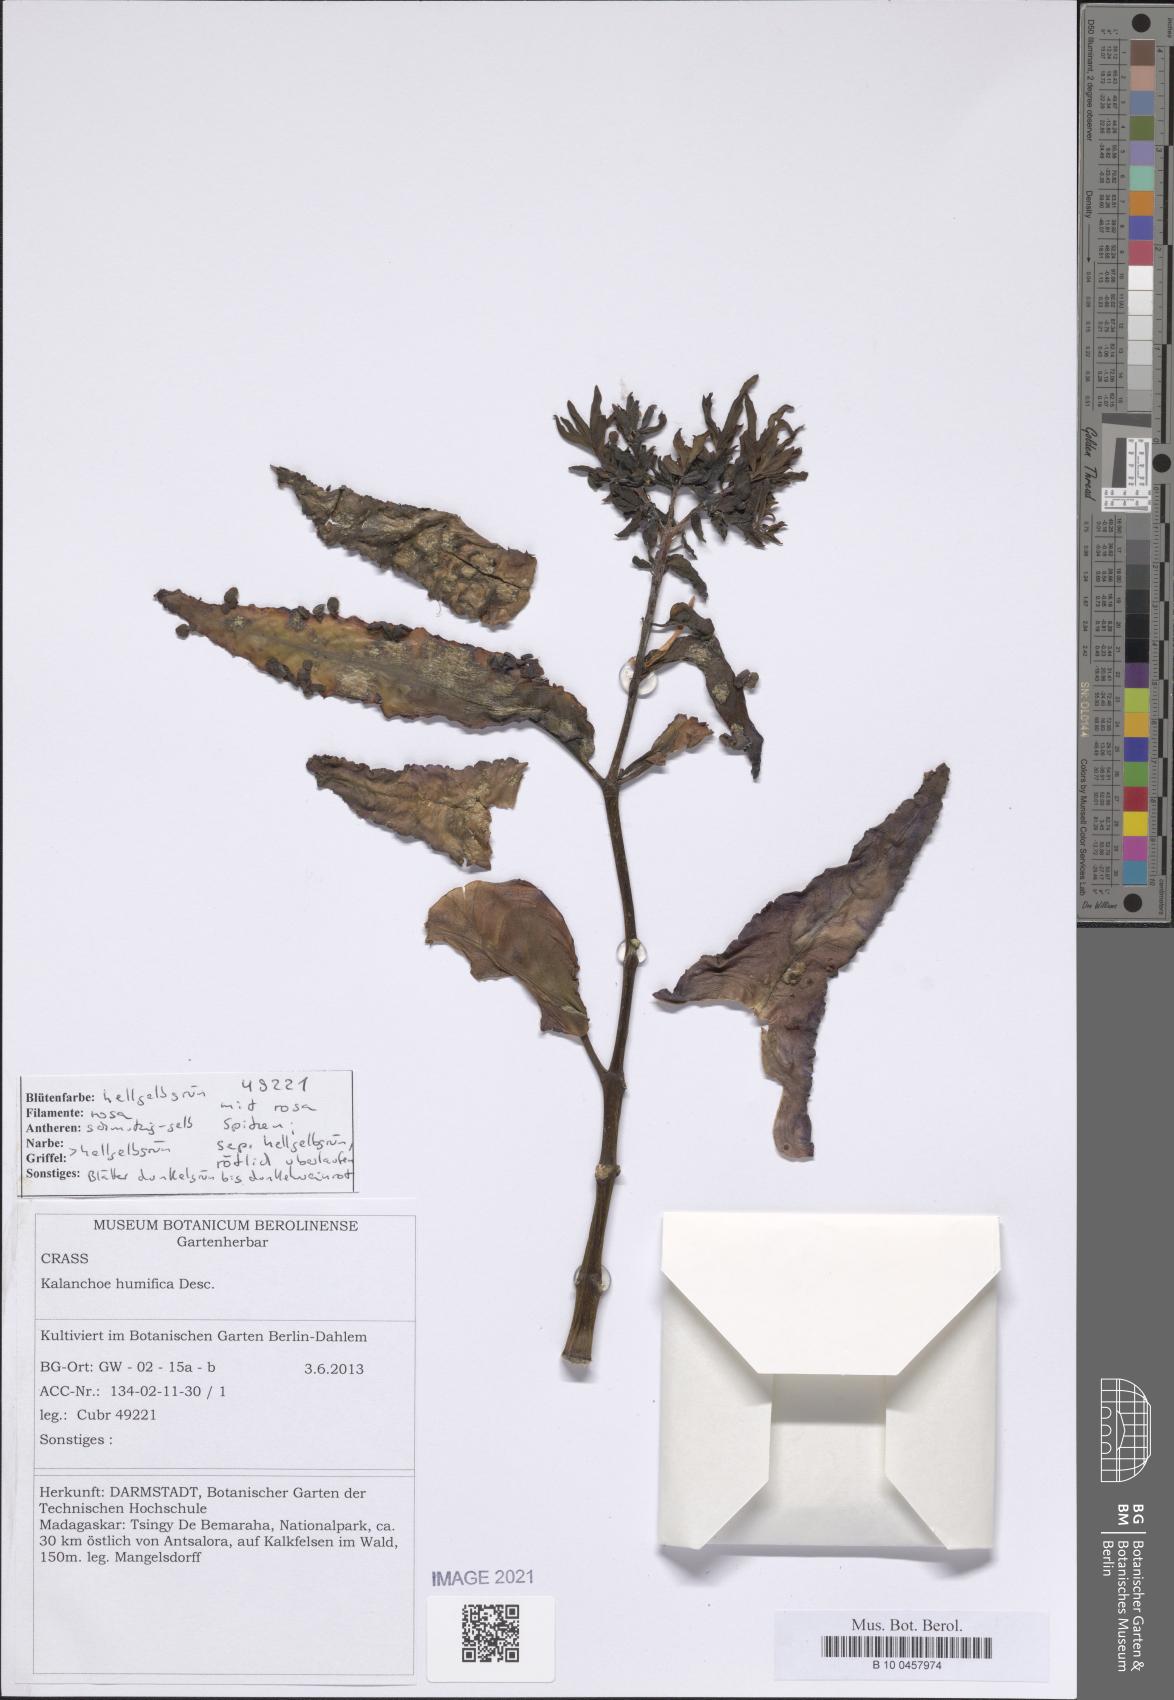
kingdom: Plantae
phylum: Tracheophyta
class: Magnoliopsida
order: Saxifragales
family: Crassulaceae
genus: Kalanchoe
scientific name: Kalanchoe humifica
